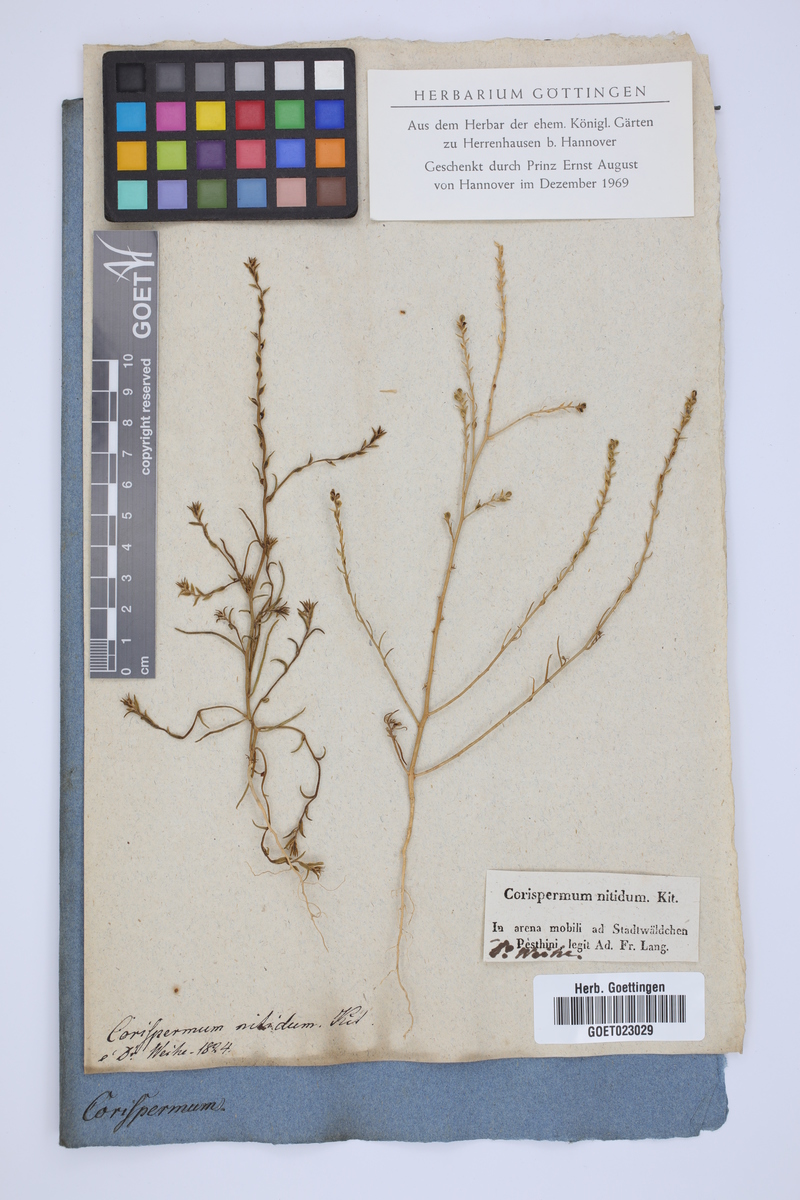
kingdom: Plantae
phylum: Tracheophyta
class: Magnoliopsida
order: Caryophyllales
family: Amaranthaceae
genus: Corispermum
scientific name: Corispermum nitidum
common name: Bugseed
